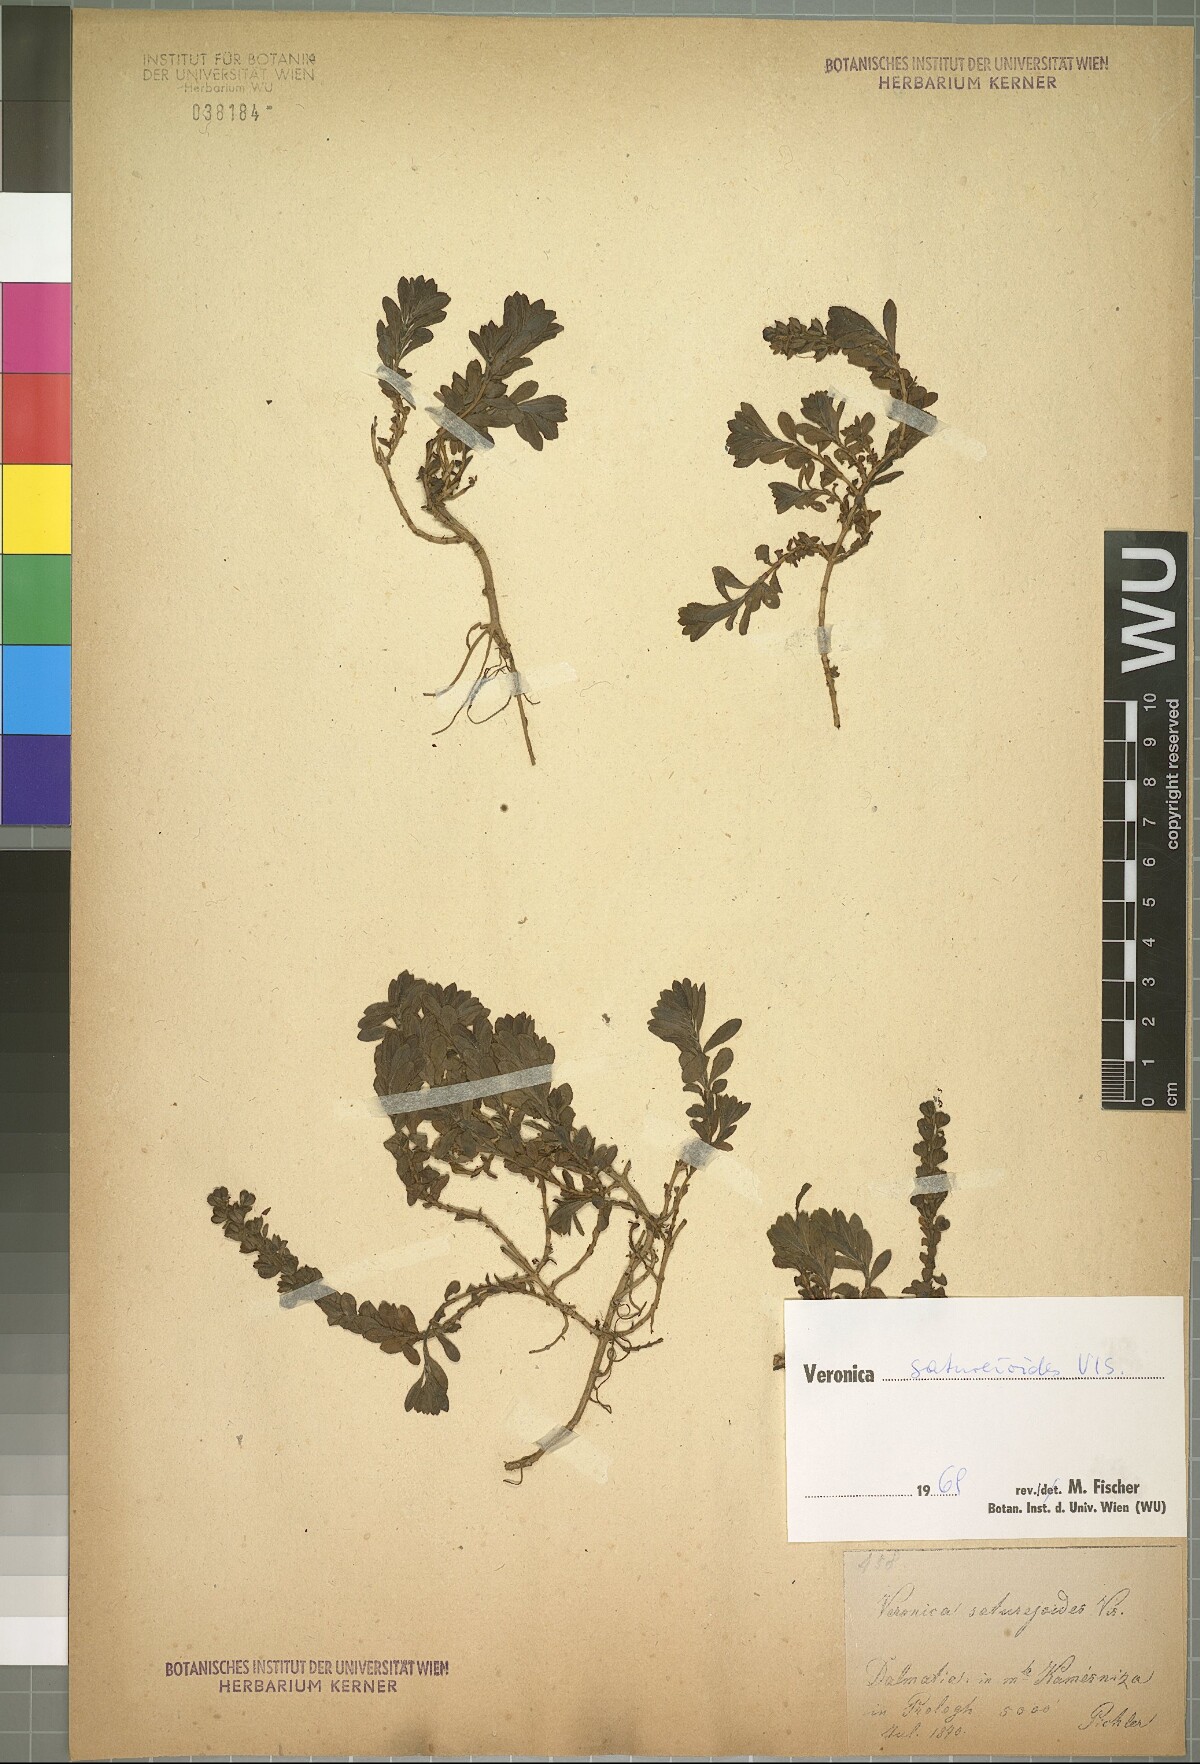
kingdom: Plantae
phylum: Tracheophyta
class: Magnoliopsida
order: Lamiales
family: Plantaginaceae
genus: Veronica
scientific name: Veronica saturejoides
